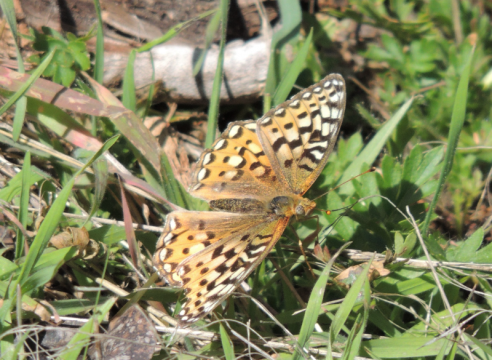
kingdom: Animalia
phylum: Arthropoda
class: Insecta
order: Lepidoptera
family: Nymphalidae
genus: Speyeria
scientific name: Speyeria coronis
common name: Coronis Fritillary
